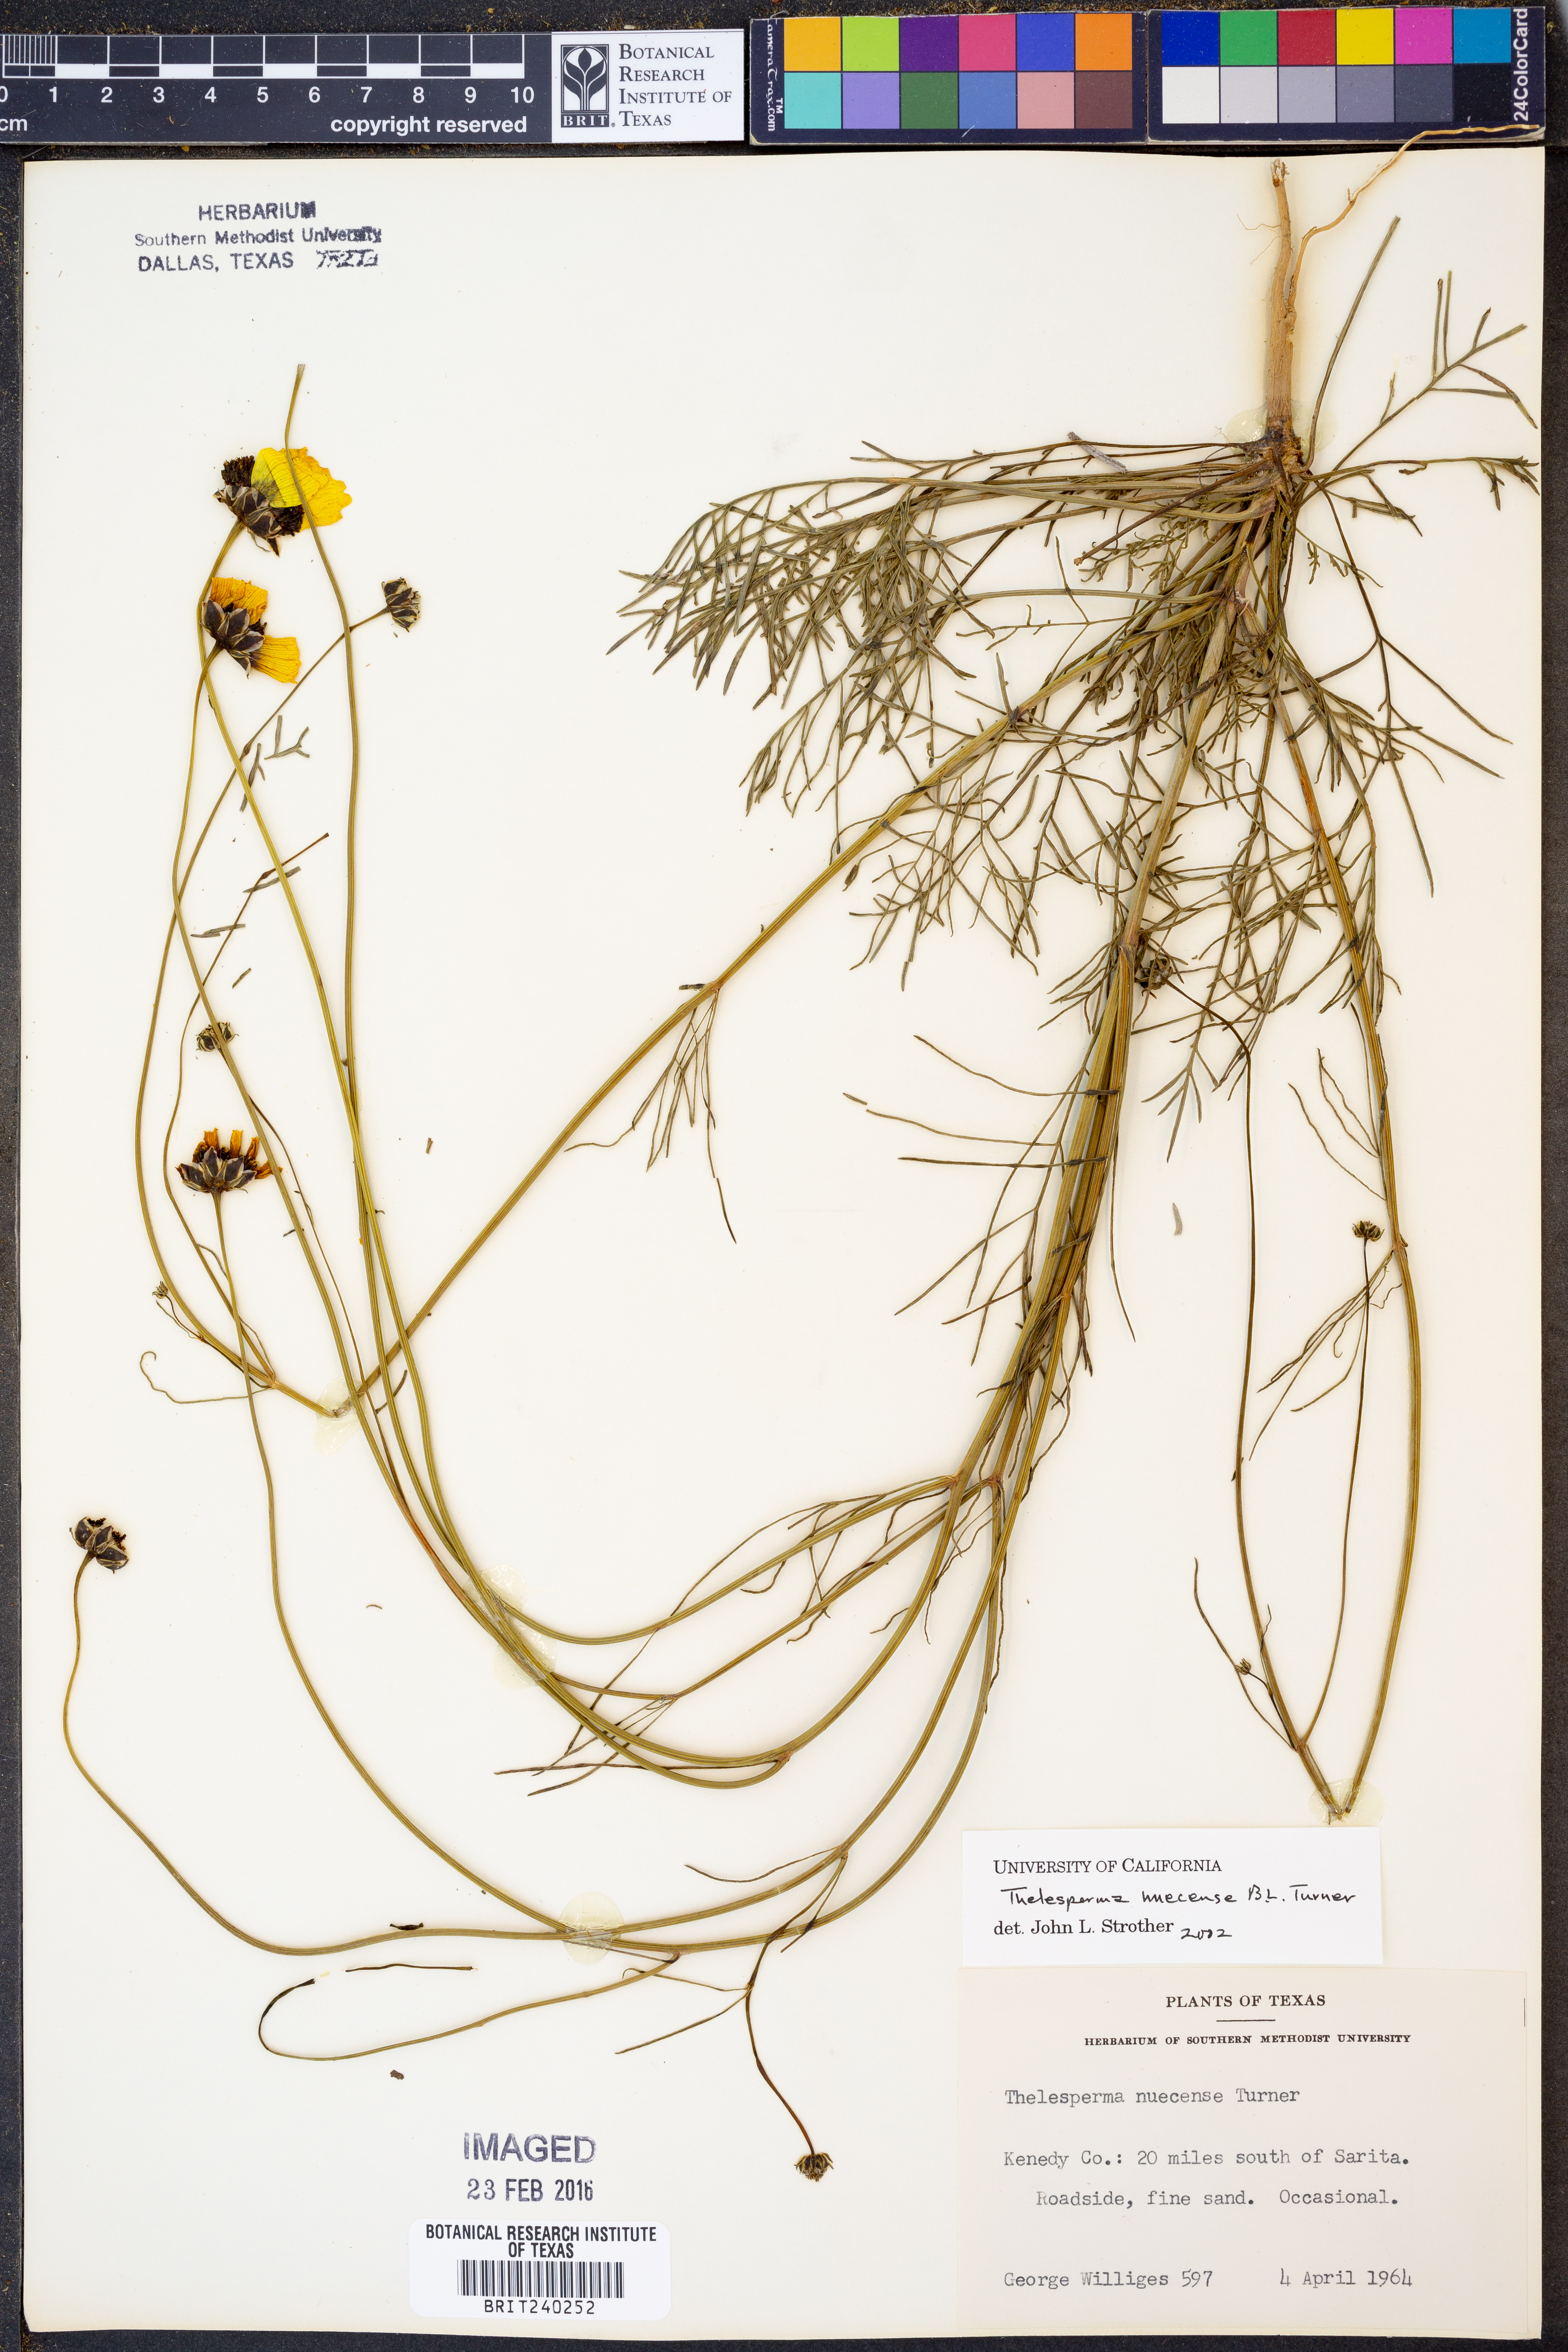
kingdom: Plantae
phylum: Tracheophyta
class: Magnoliopsida
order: Asterales
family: Asteraceae
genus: Thelesperma
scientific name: Thelesperma nuecense
